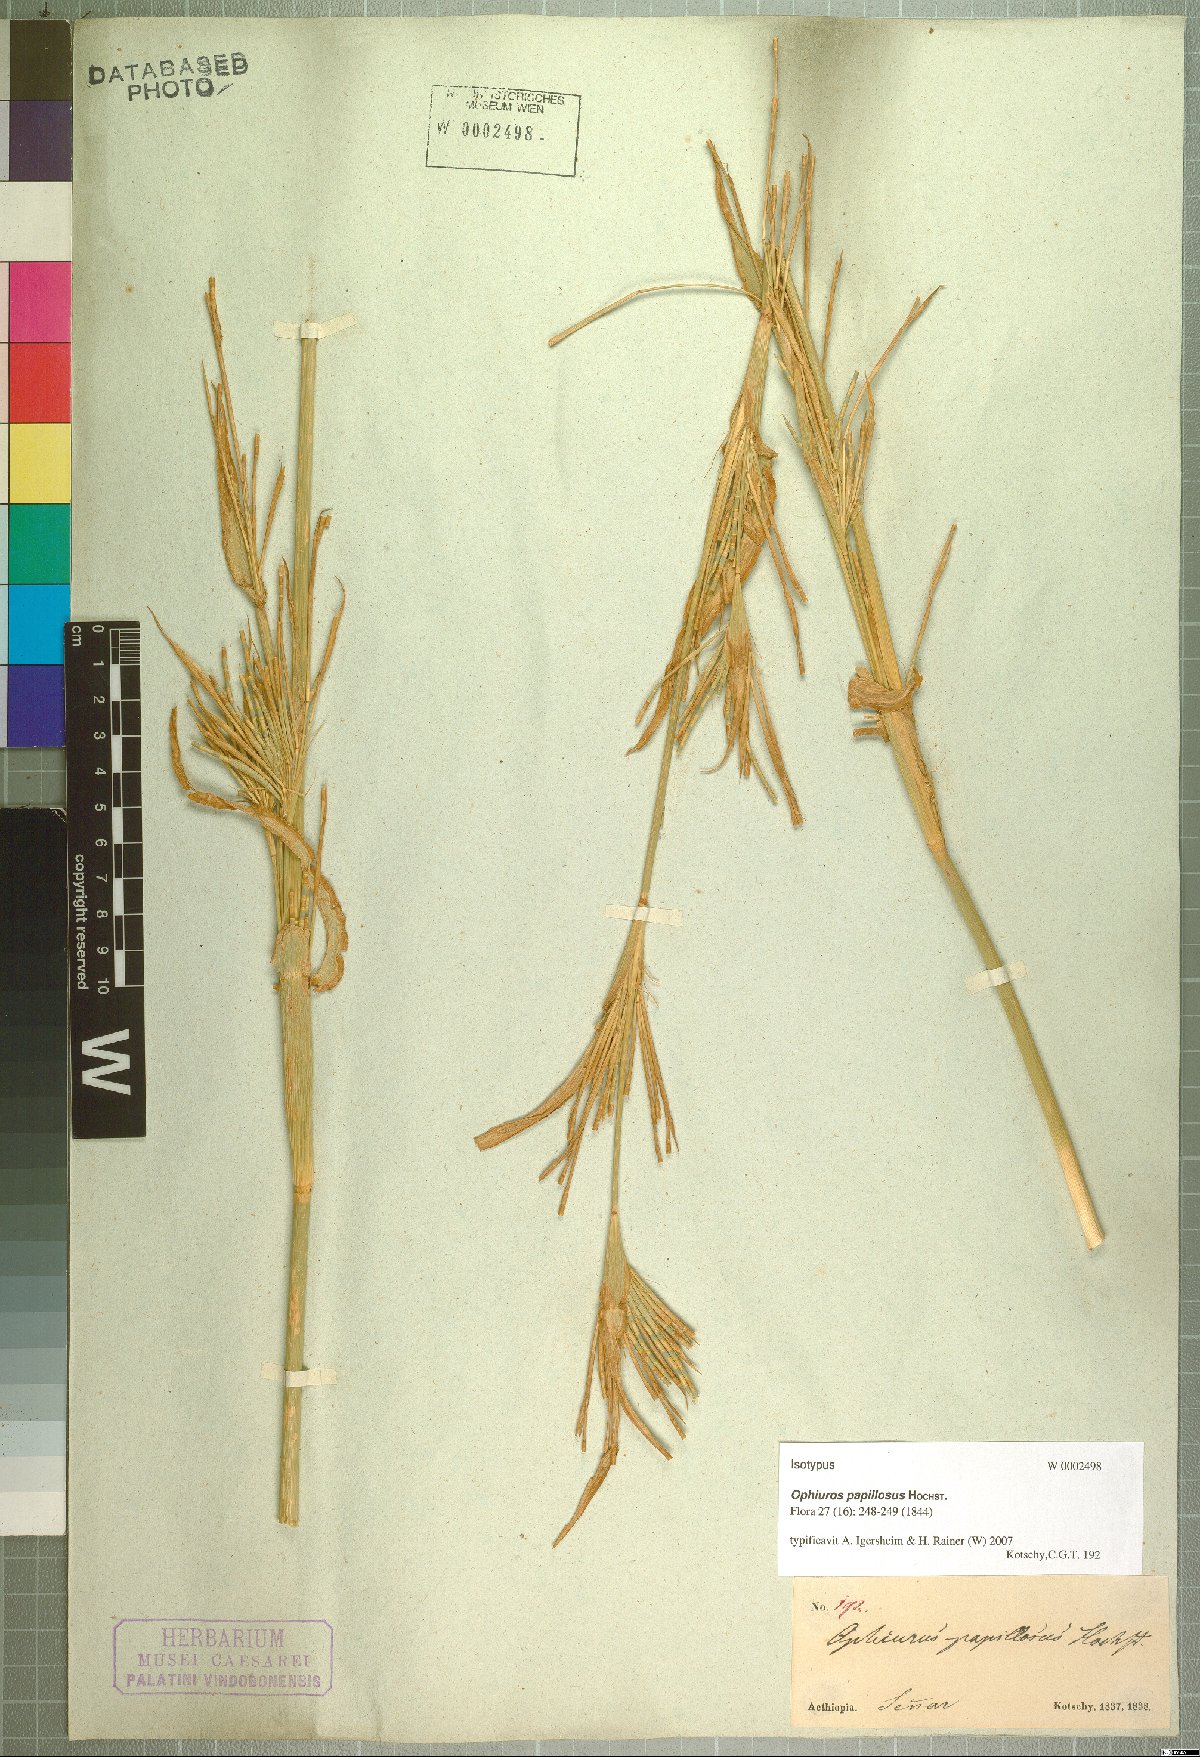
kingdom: Plantae
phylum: Tracheophyta
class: Liliopsida
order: Poales
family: Poaceae
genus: Ophiuros
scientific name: Ophiuros papillosus
